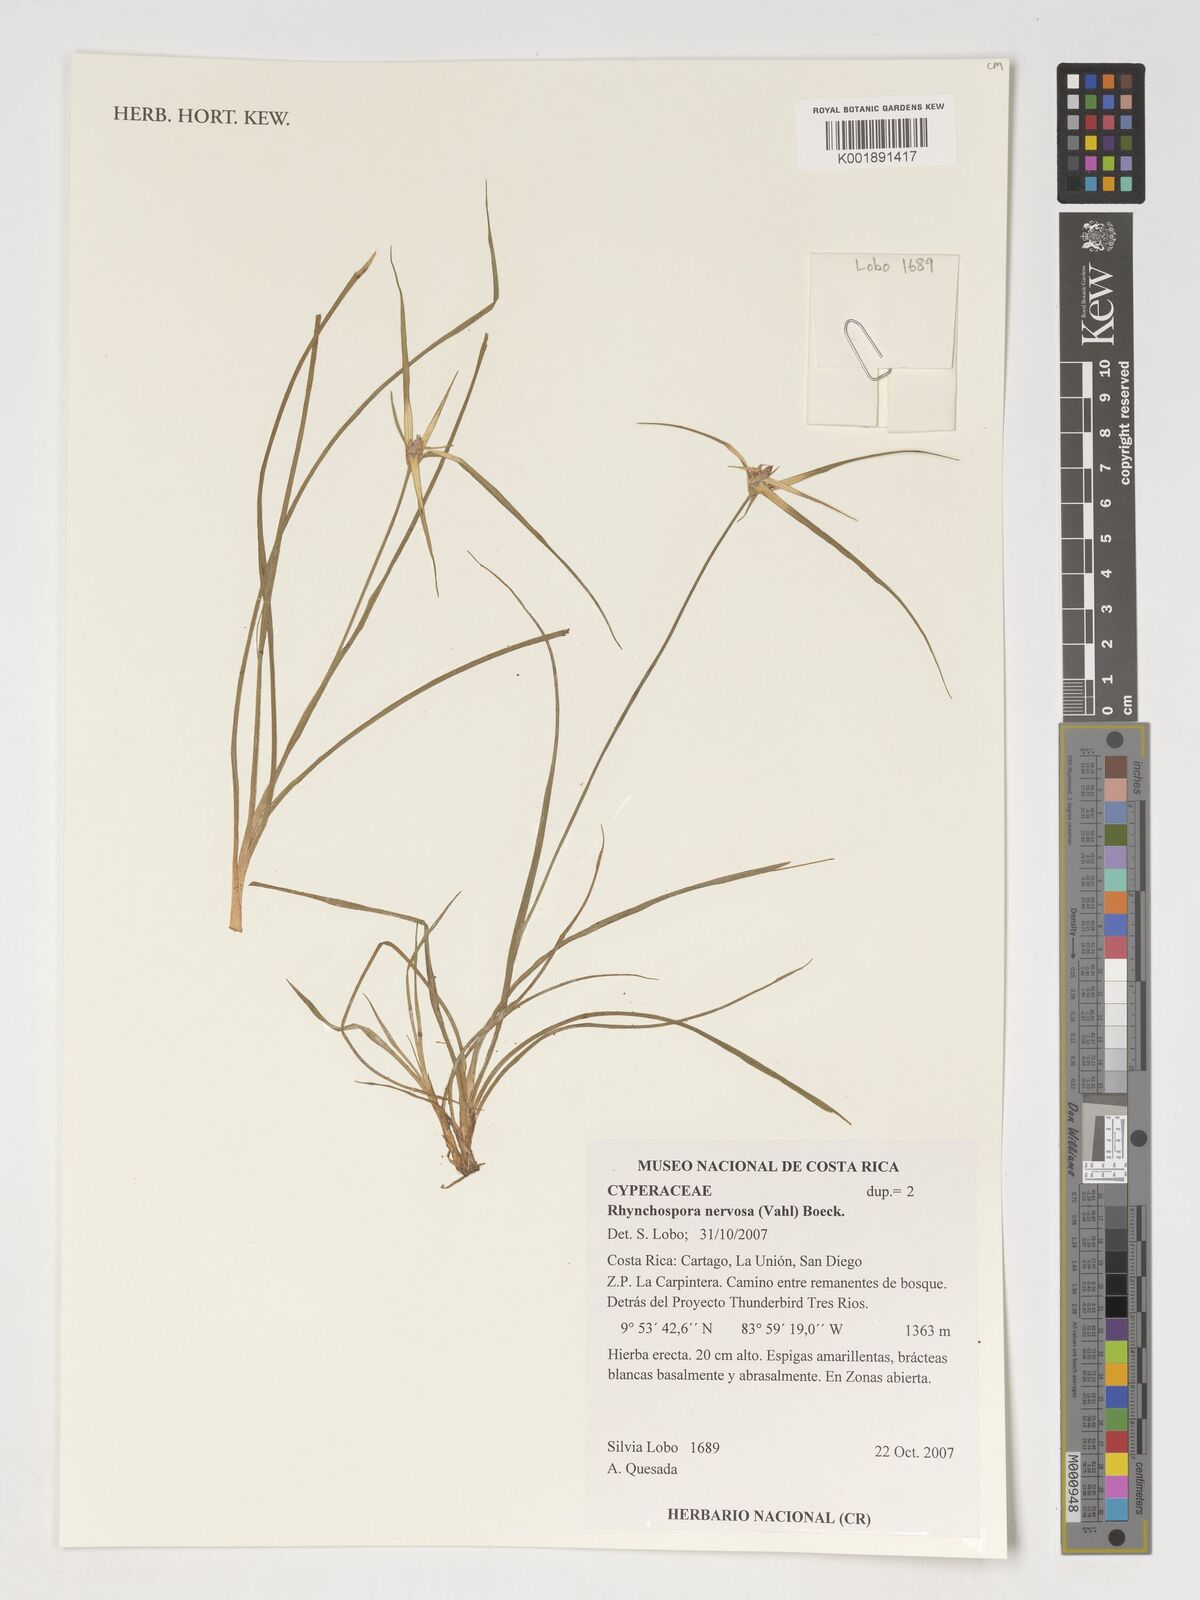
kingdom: Plantae
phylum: Tracheophyta
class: Liliopsida
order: Poales
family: Cyperaceae
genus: Rhynchospora
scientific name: Rhynchospora nervosa
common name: Star sedge
